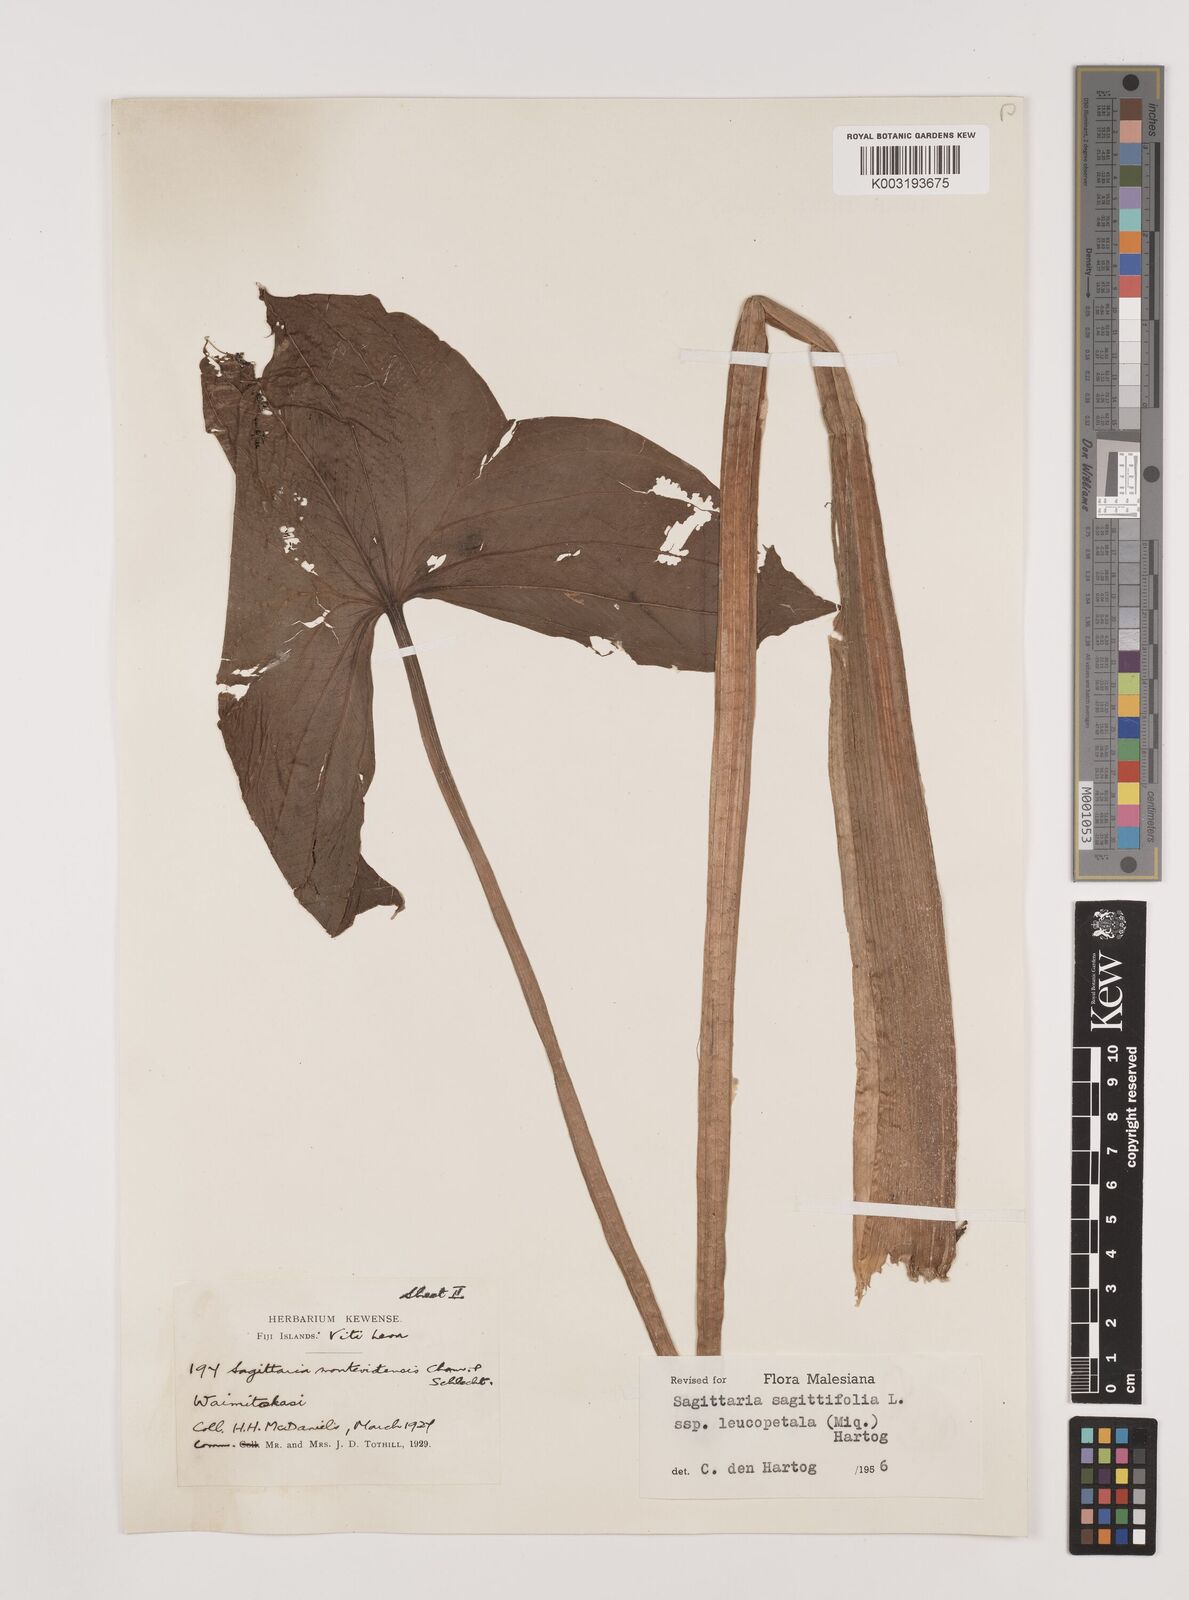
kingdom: Plantae
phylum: Tracheophyta
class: Liliopsida
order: Alismatales
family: Alismataceae
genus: Sagittaria
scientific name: Sagittaria trifolia
